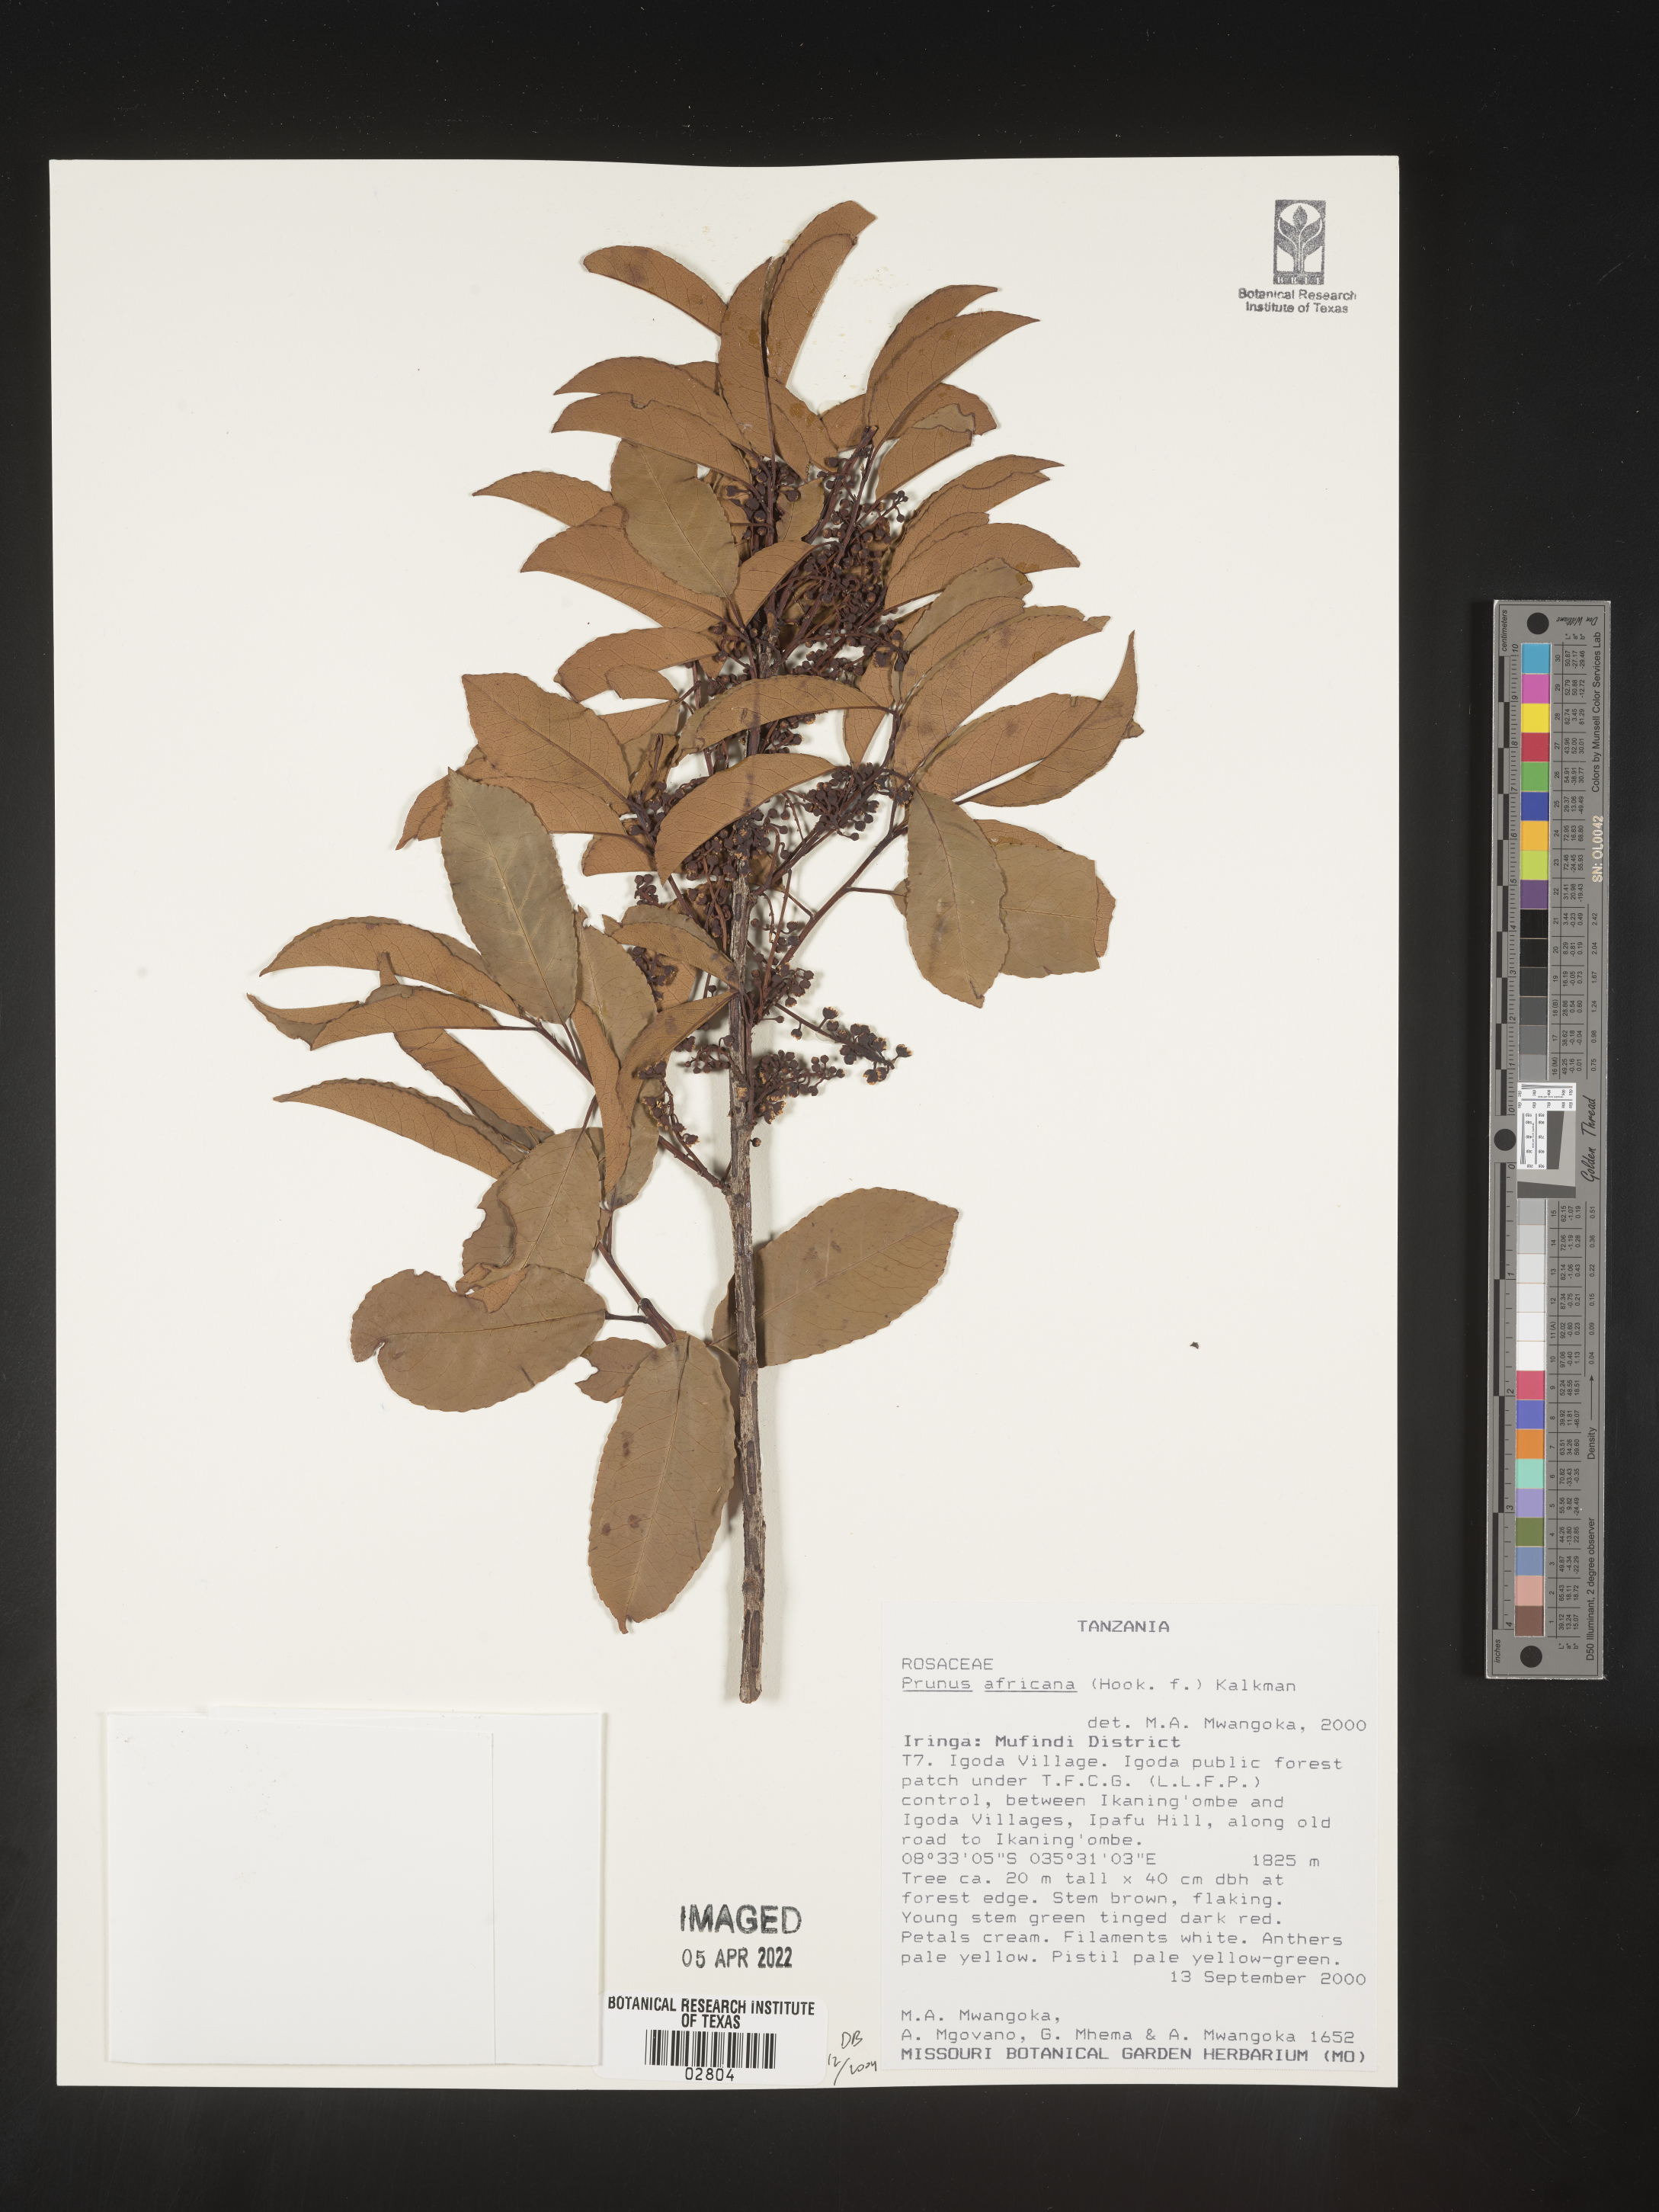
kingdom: Plantae
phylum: Tracheophyta
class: Magnoliopsida
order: Rosales
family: Rosaceae
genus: Prunus
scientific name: Prunus
